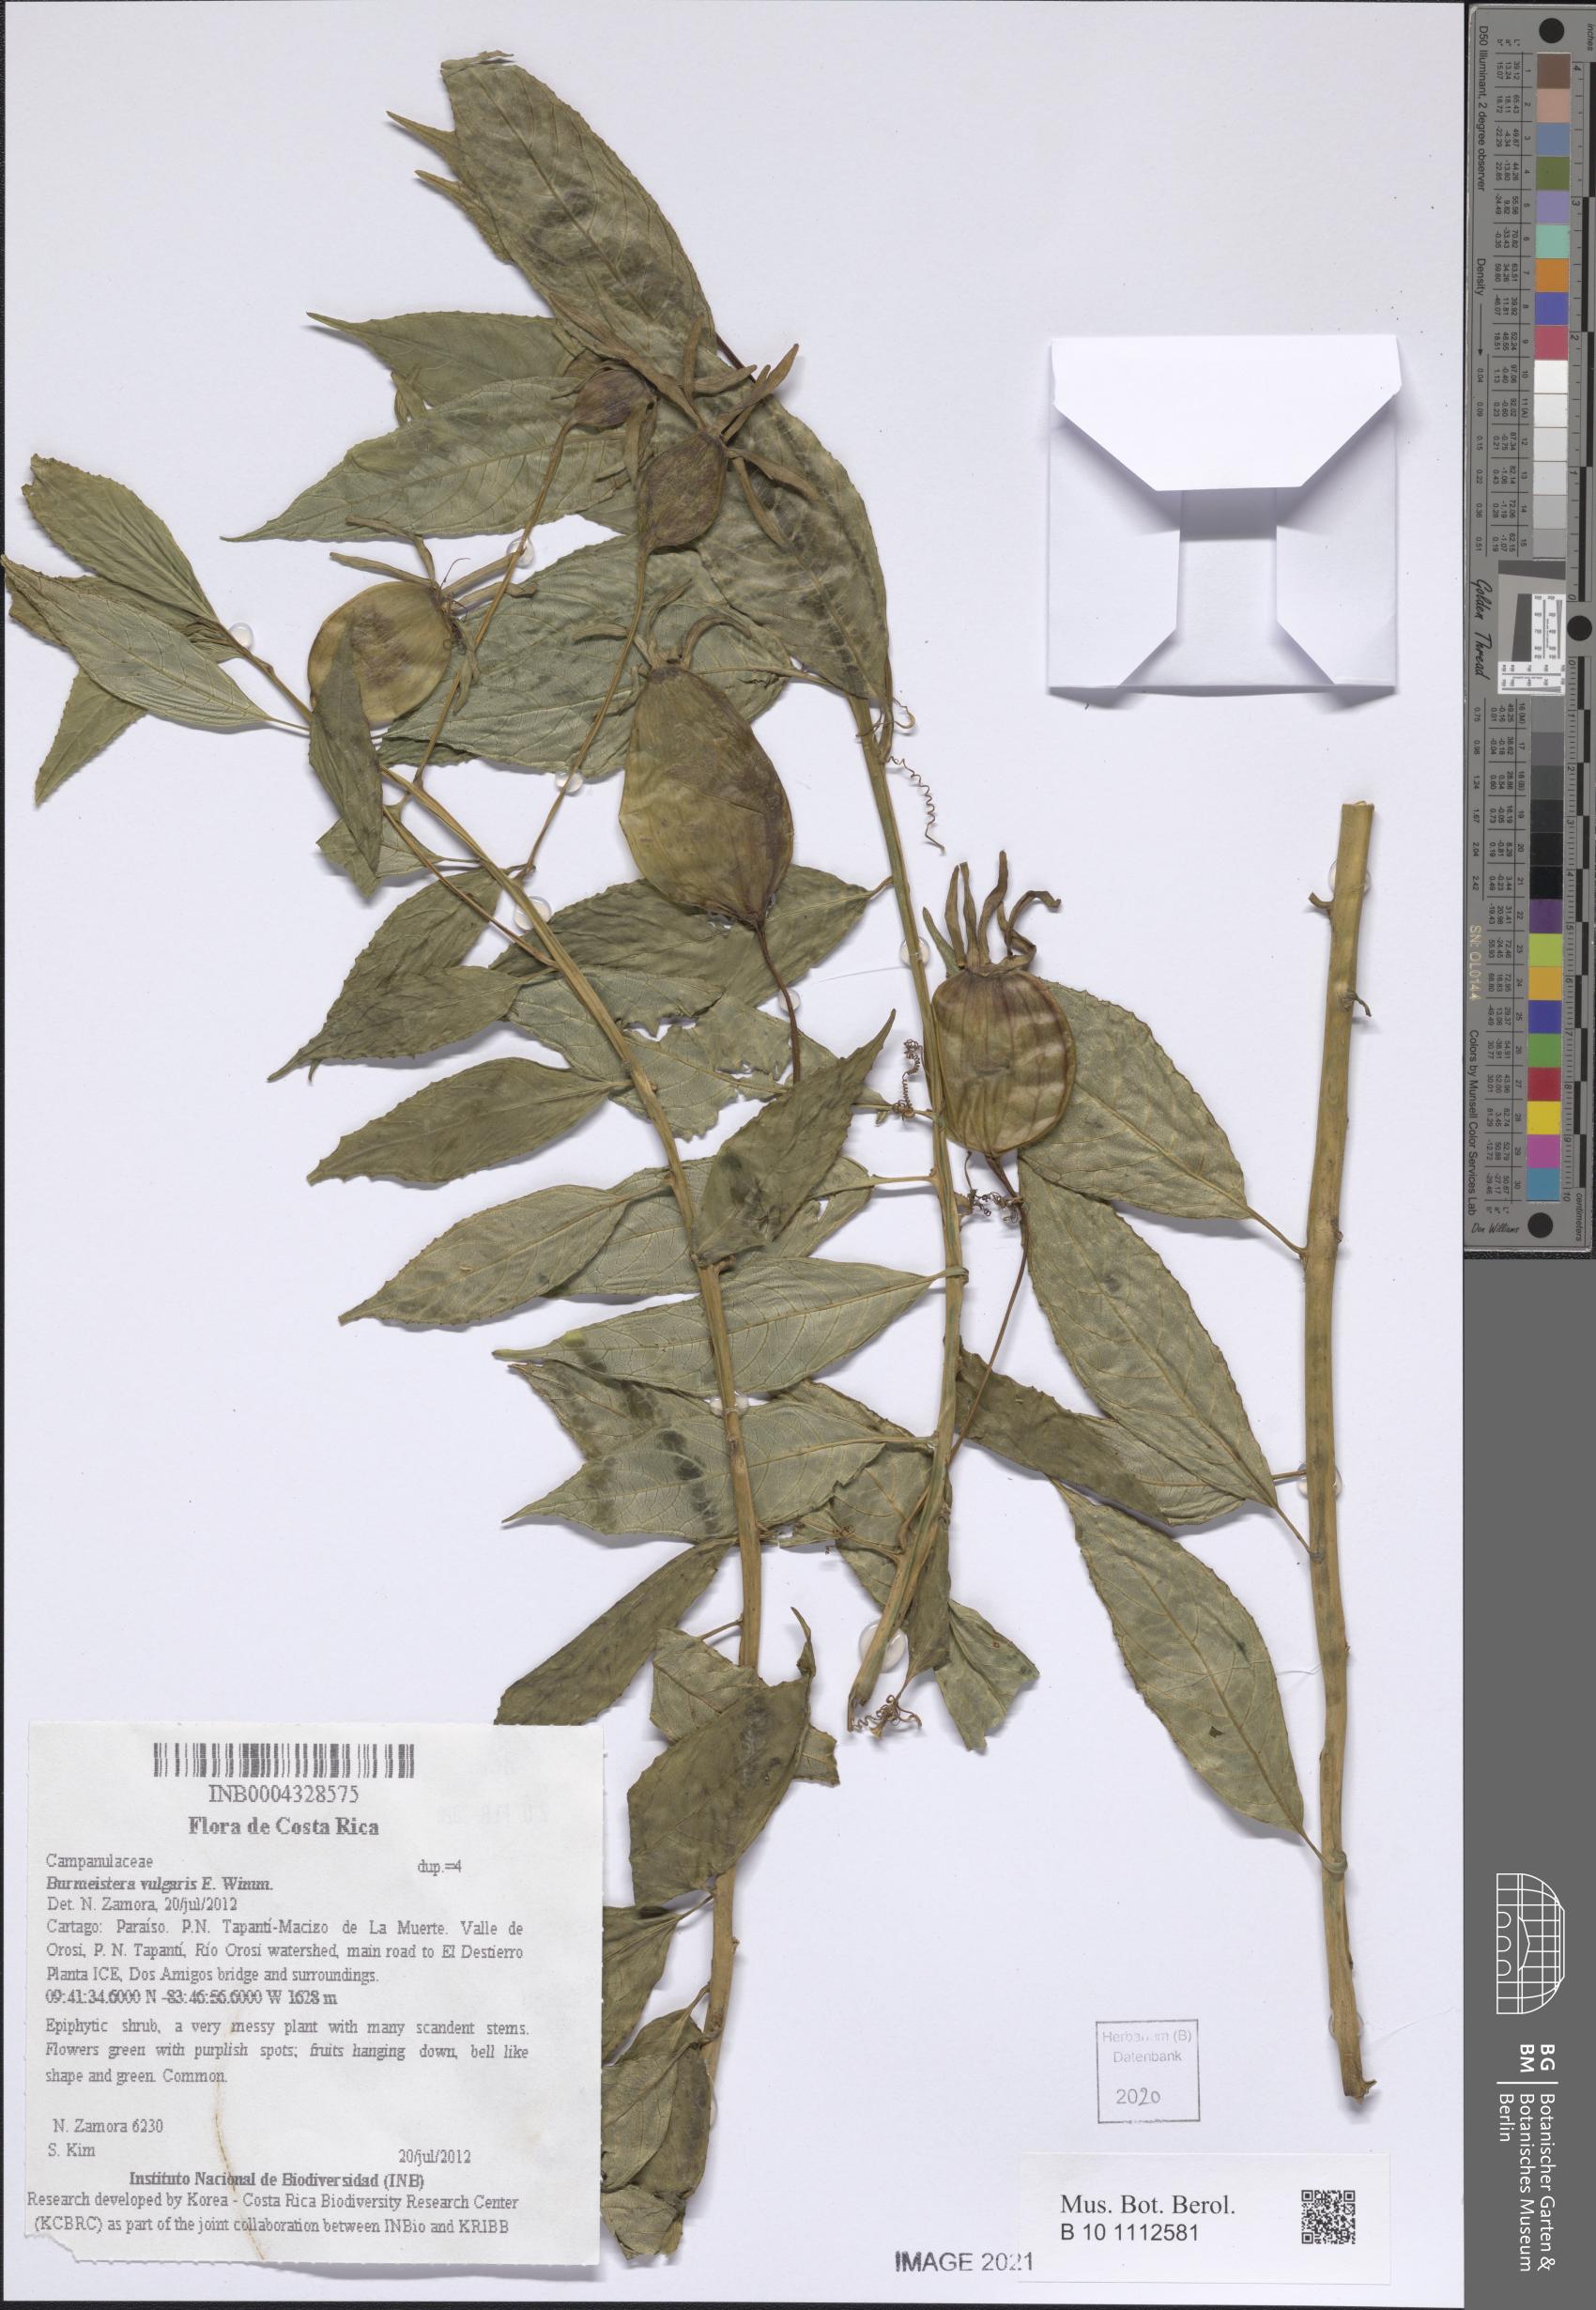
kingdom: Plantae
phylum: Tracheophyta
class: Magnoliopsida
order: Asterales
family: Campanulaceae
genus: Burmeistera
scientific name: Burmeistera vulgaris
